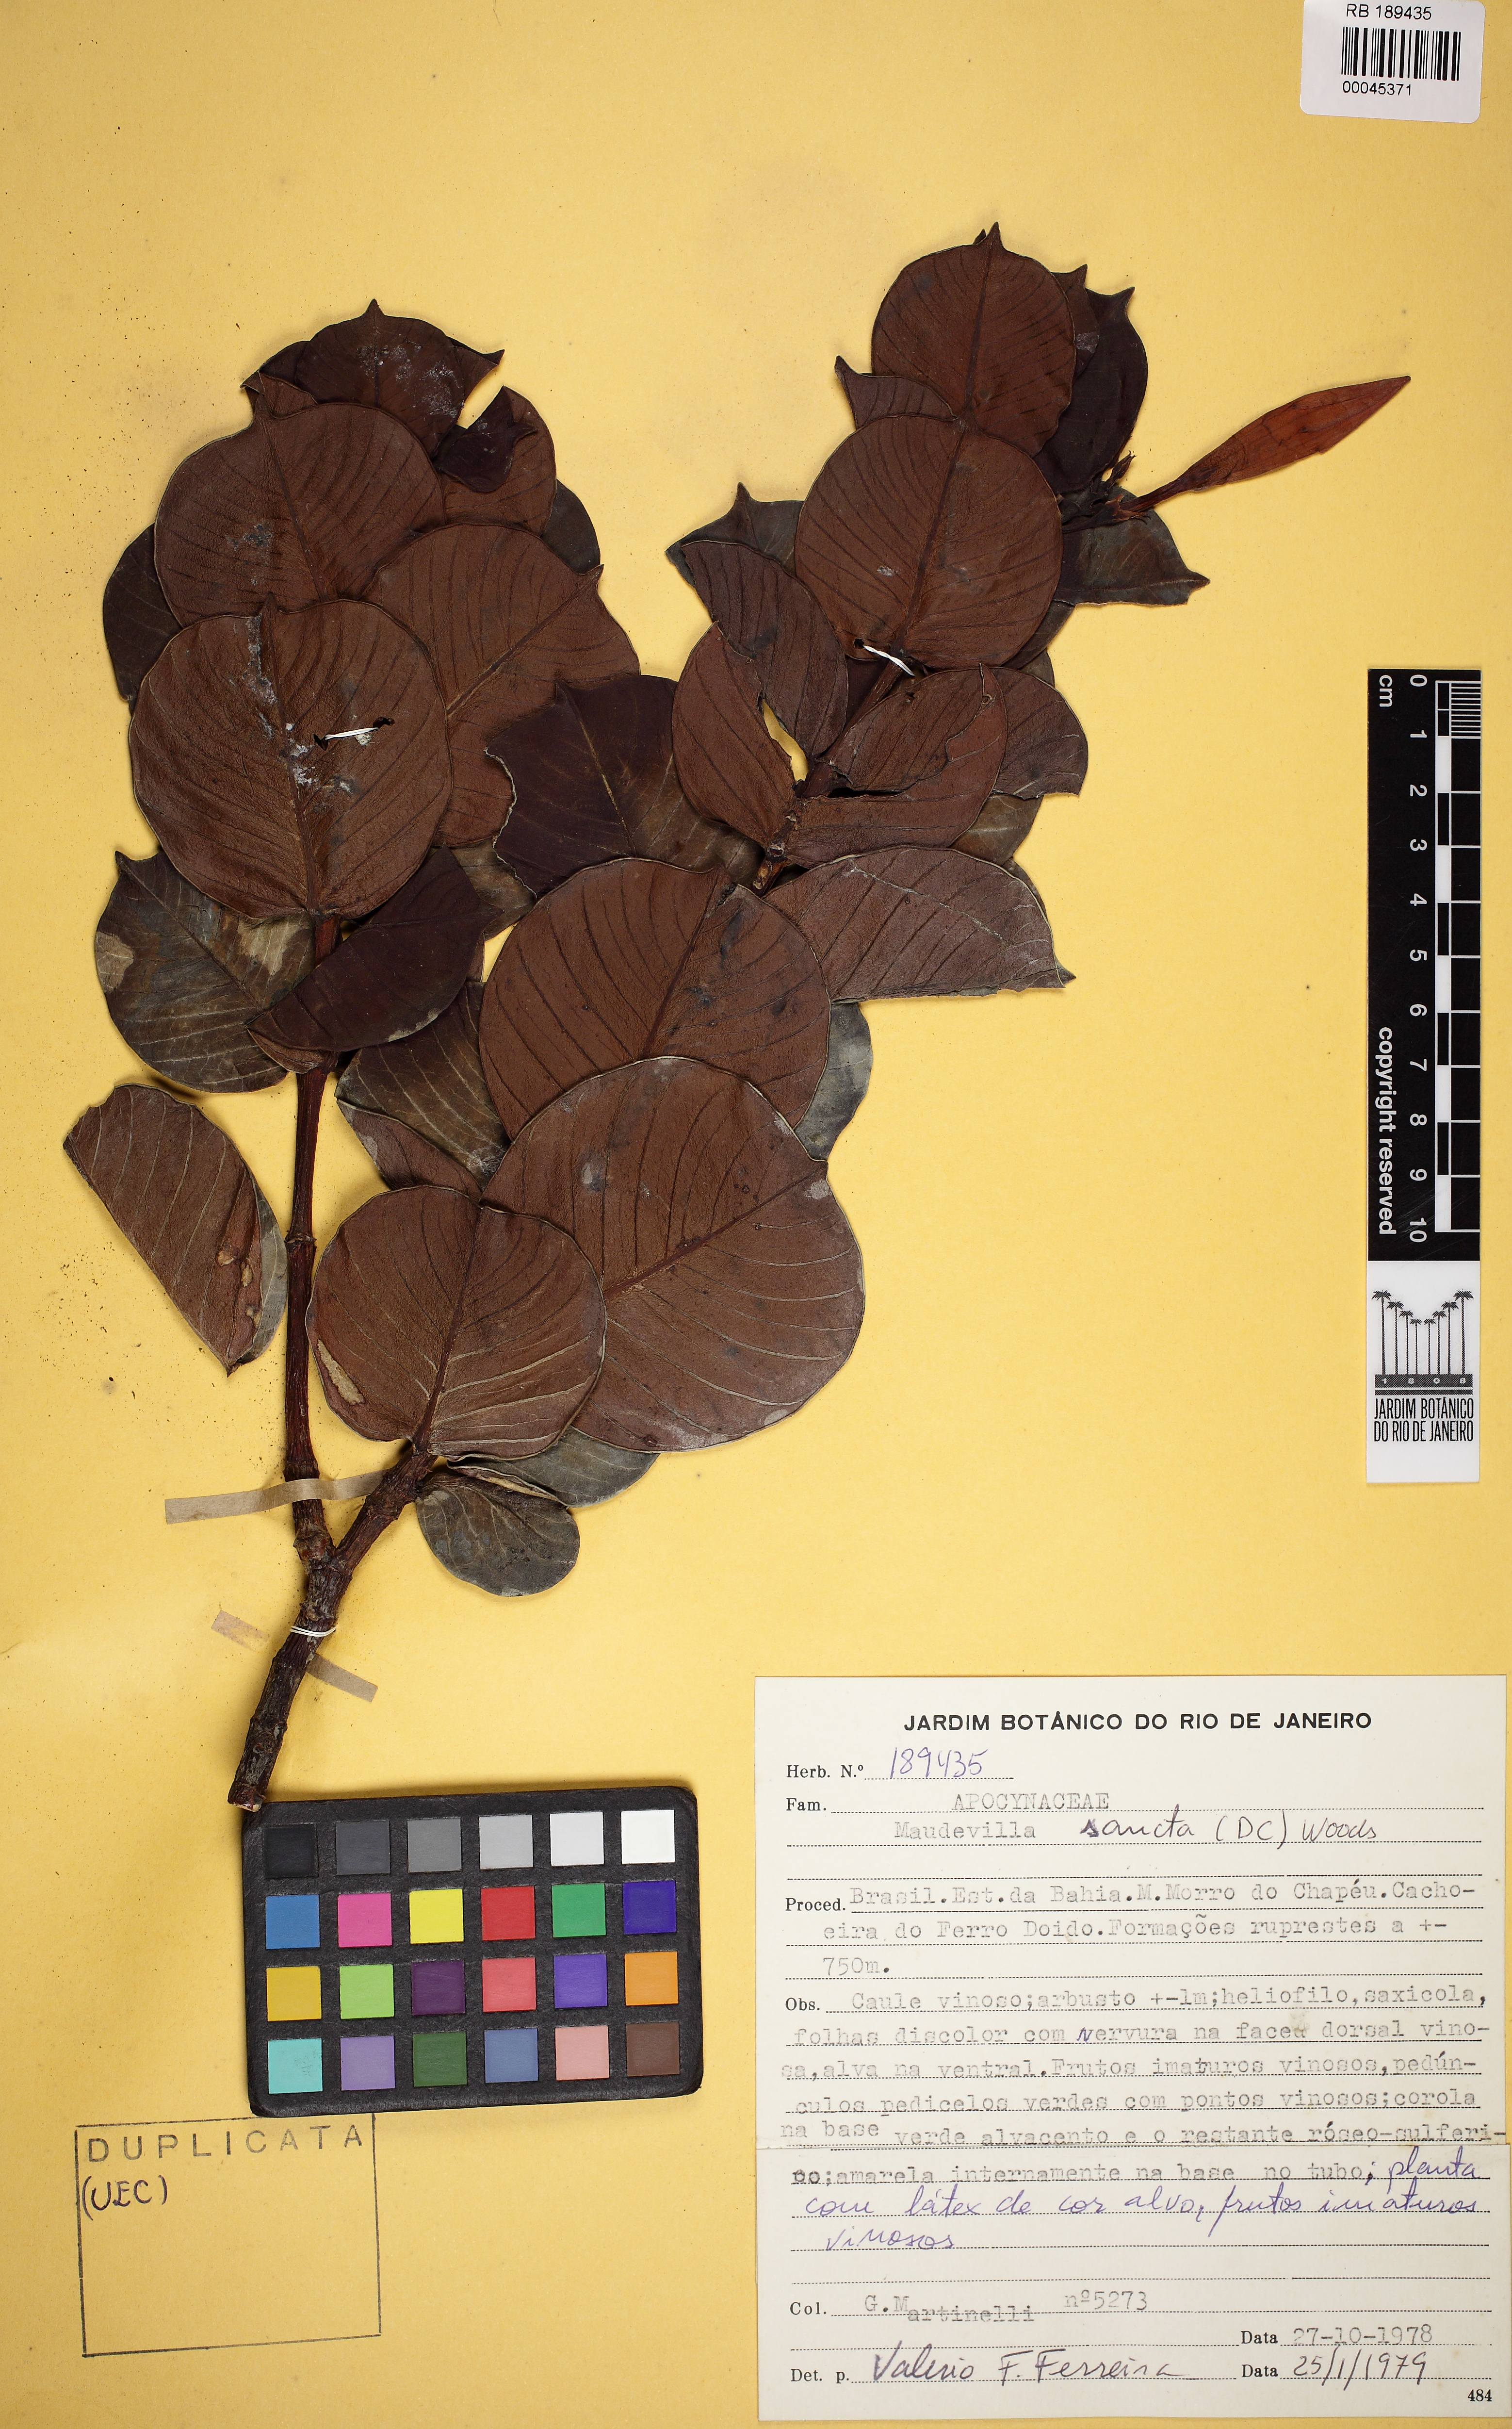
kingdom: Plantae
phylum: Tracheophyta
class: Magnoliopsida
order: Gentianales
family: Apocynaceae
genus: Mandevilla
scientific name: Mandevilla sancta
